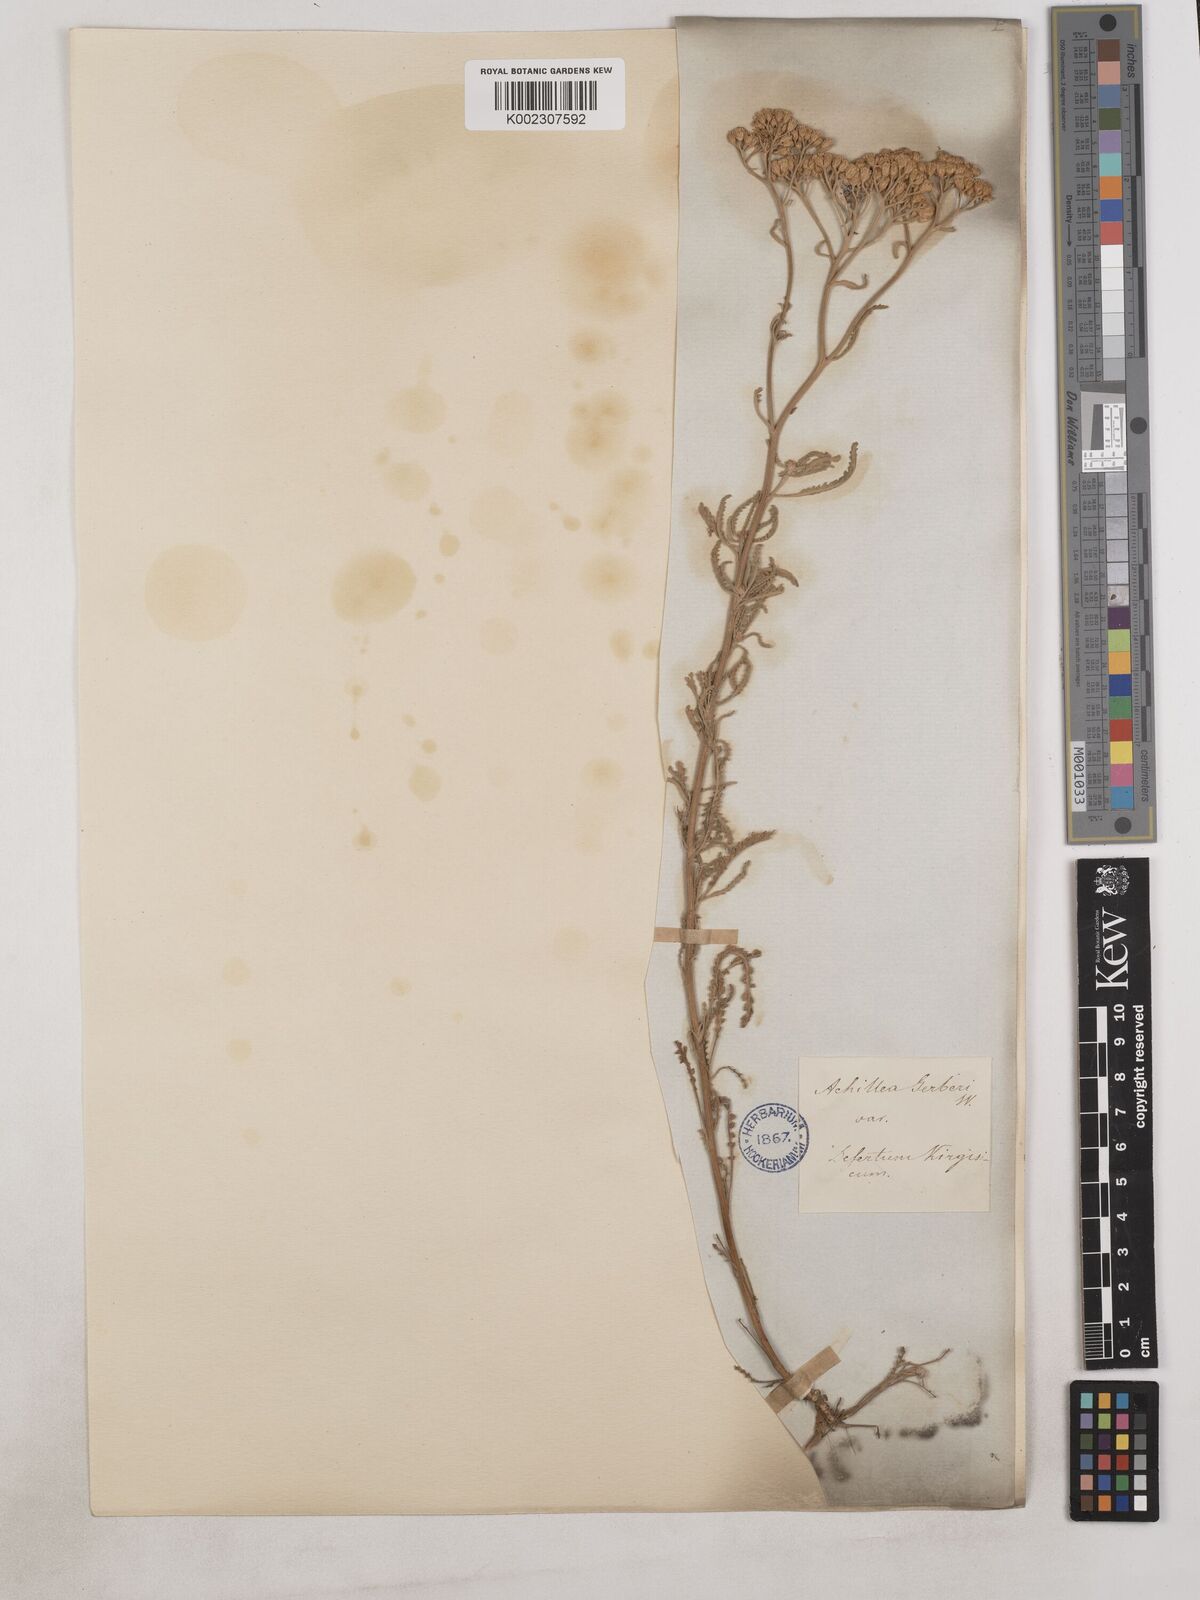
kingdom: Plantae
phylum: Tracheophyta
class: Magnoliopsida
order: Asterales
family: Asteraceae
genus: Achillea
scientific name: Achillea
